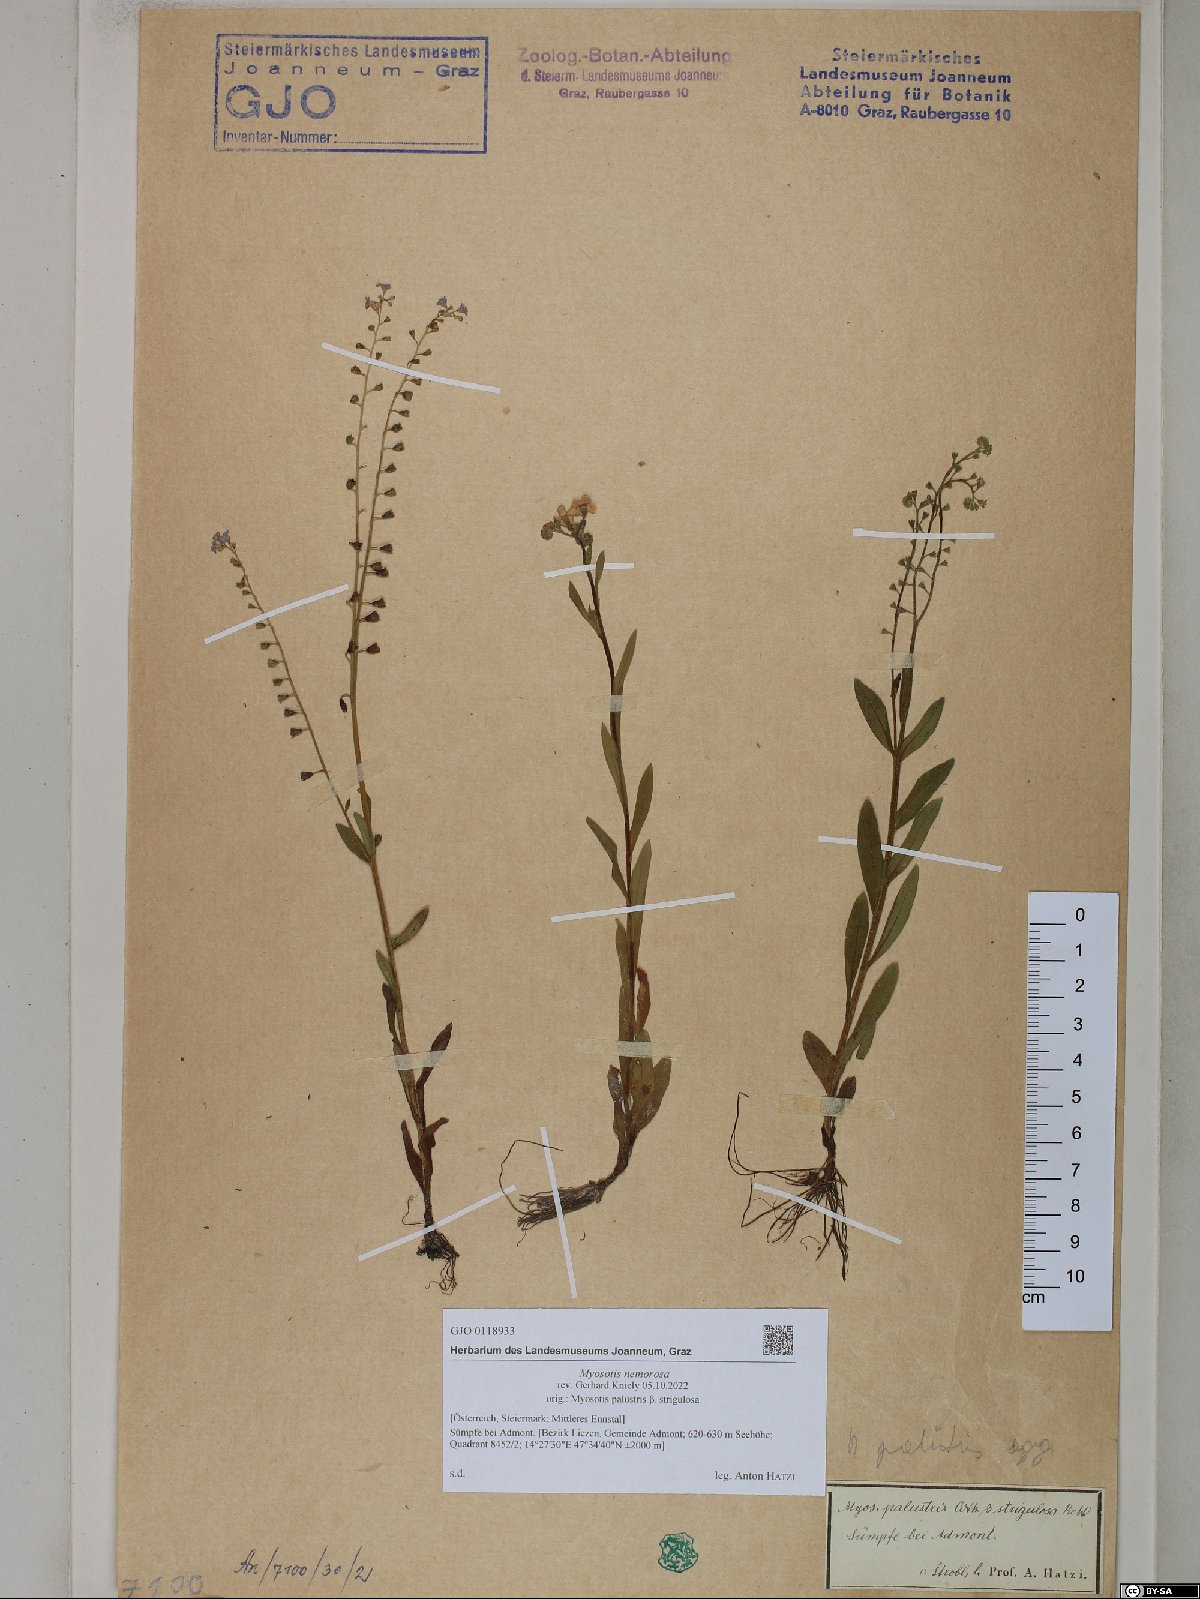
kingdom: Plantae
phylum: Tracheophyta
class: Magnoliopsida
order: Boraginales
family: Boraginaceae
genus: Myosotis
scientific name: Myosotis nemorosa
